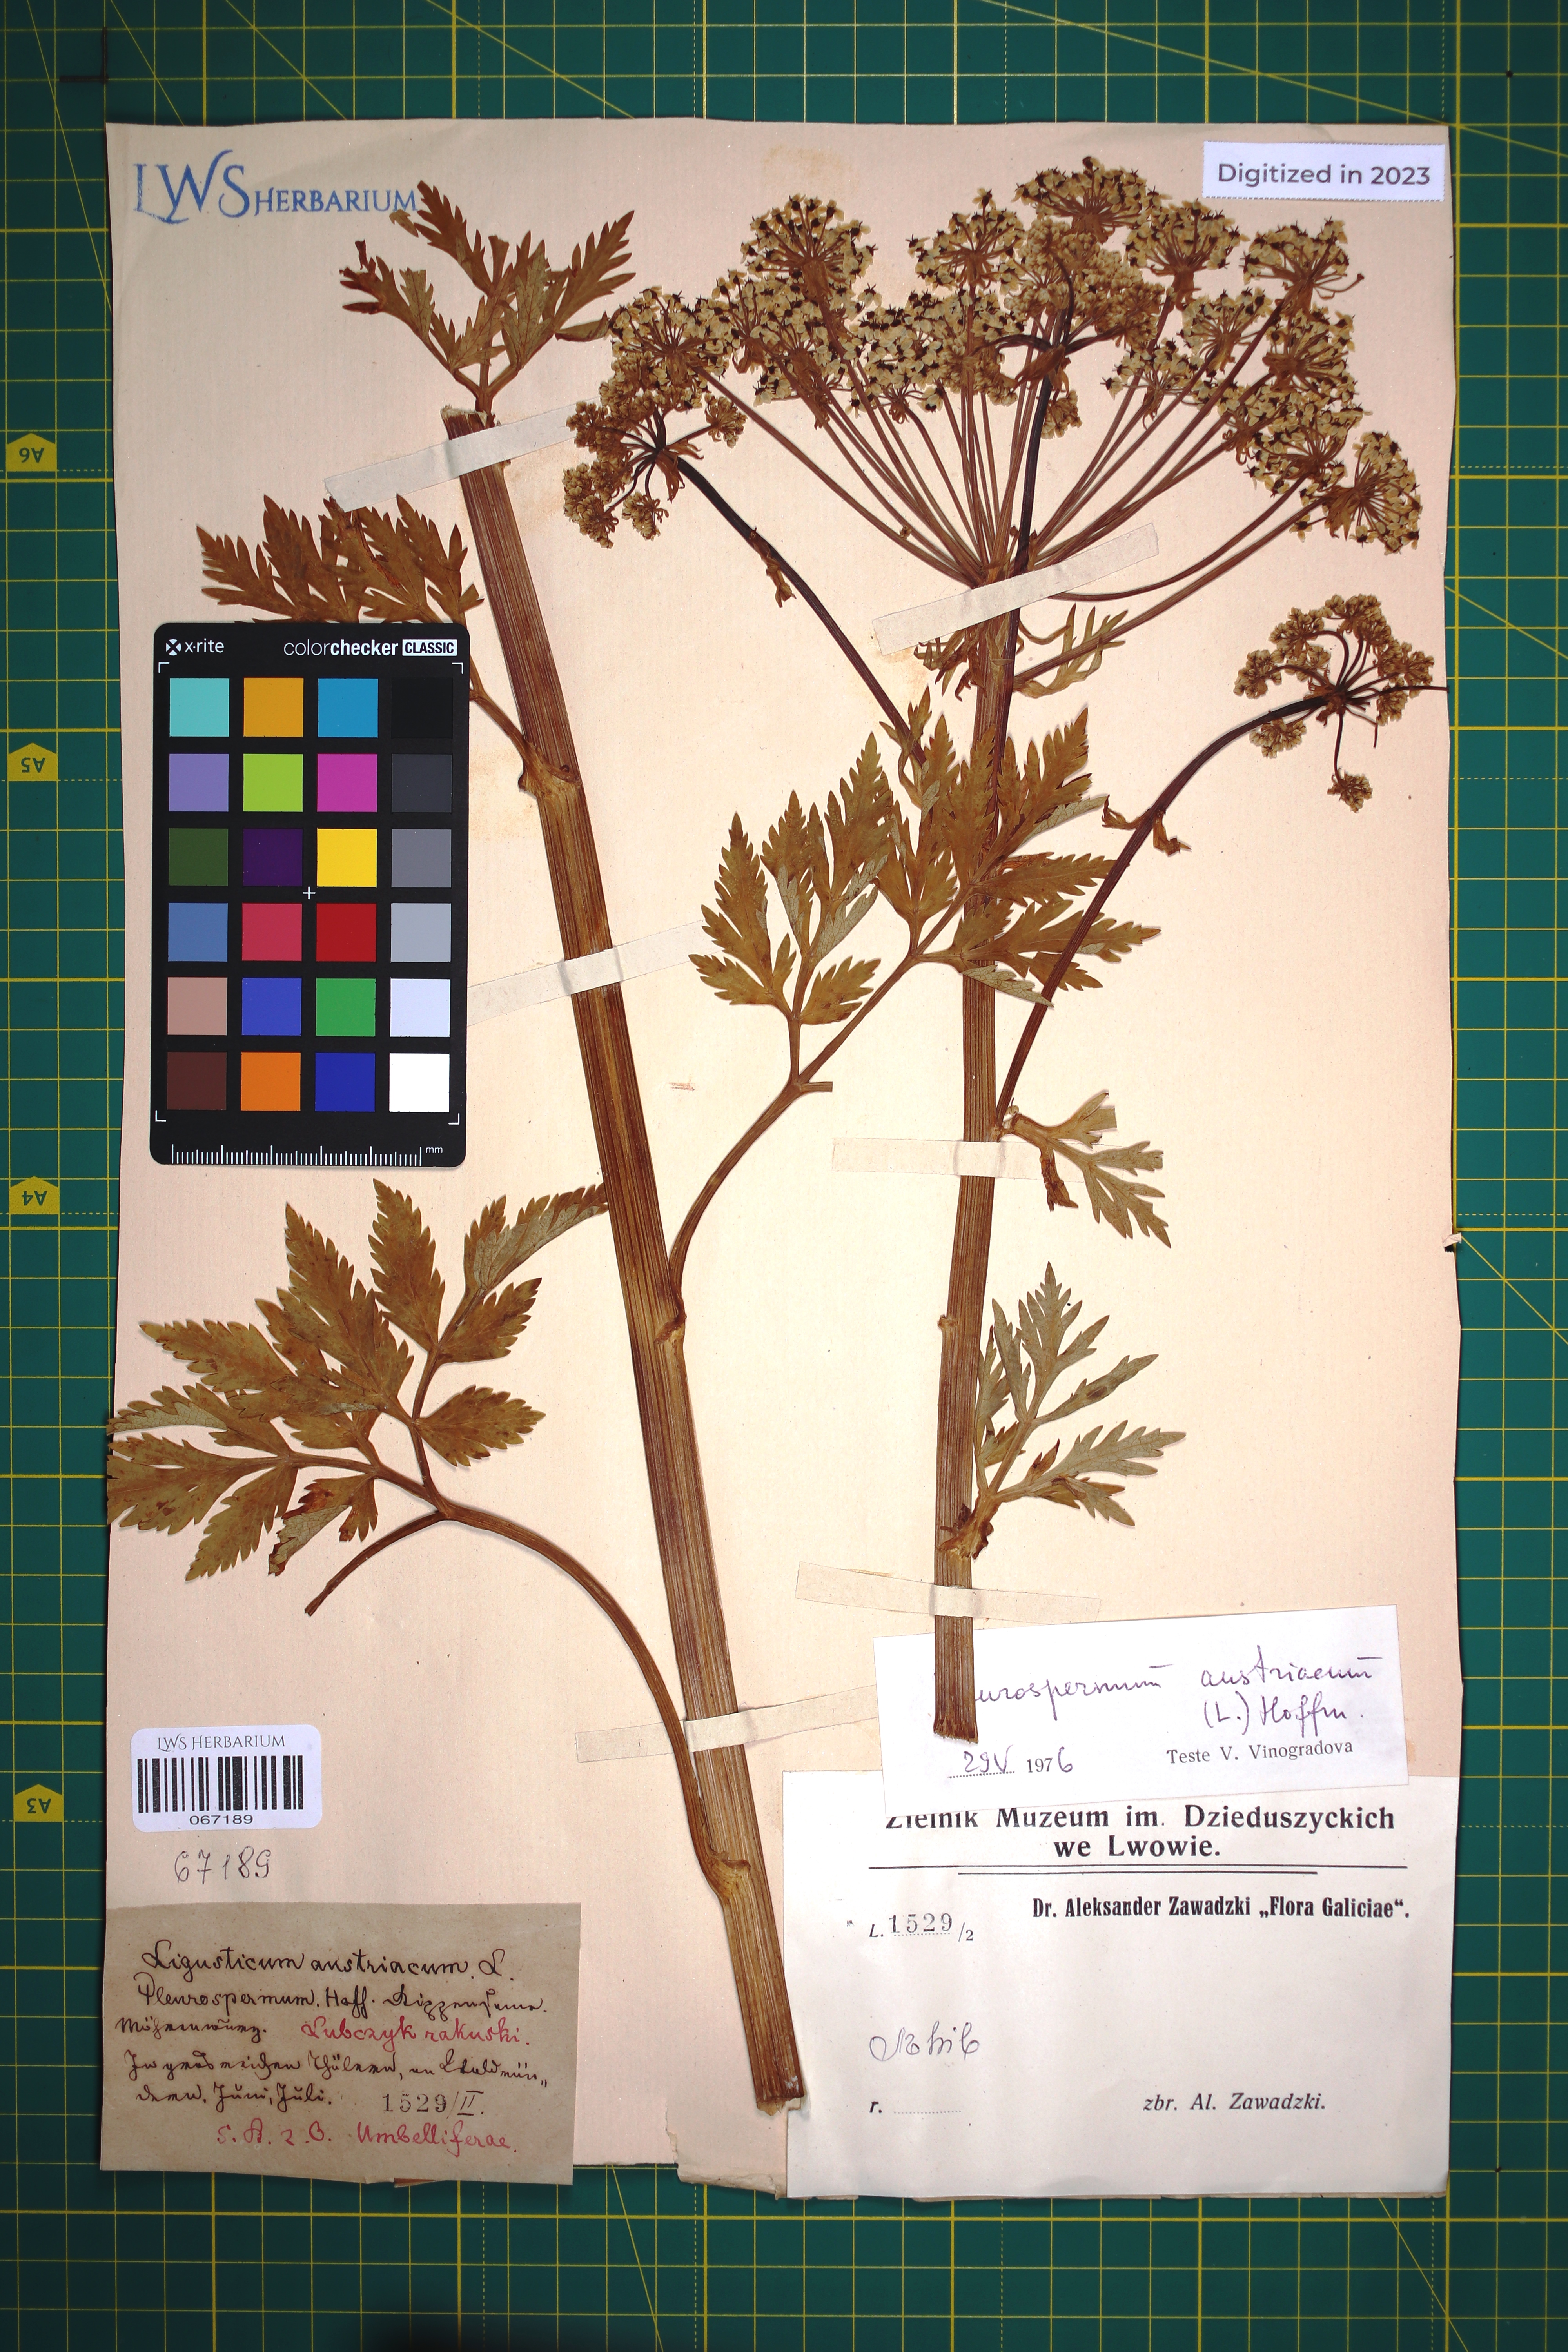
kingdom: Plantae
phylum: Tracheophyta
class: Magnoliopsida
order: Apiales
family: Apiaceae
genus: Pleurospermum
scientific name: Pleurospermum austriacum
